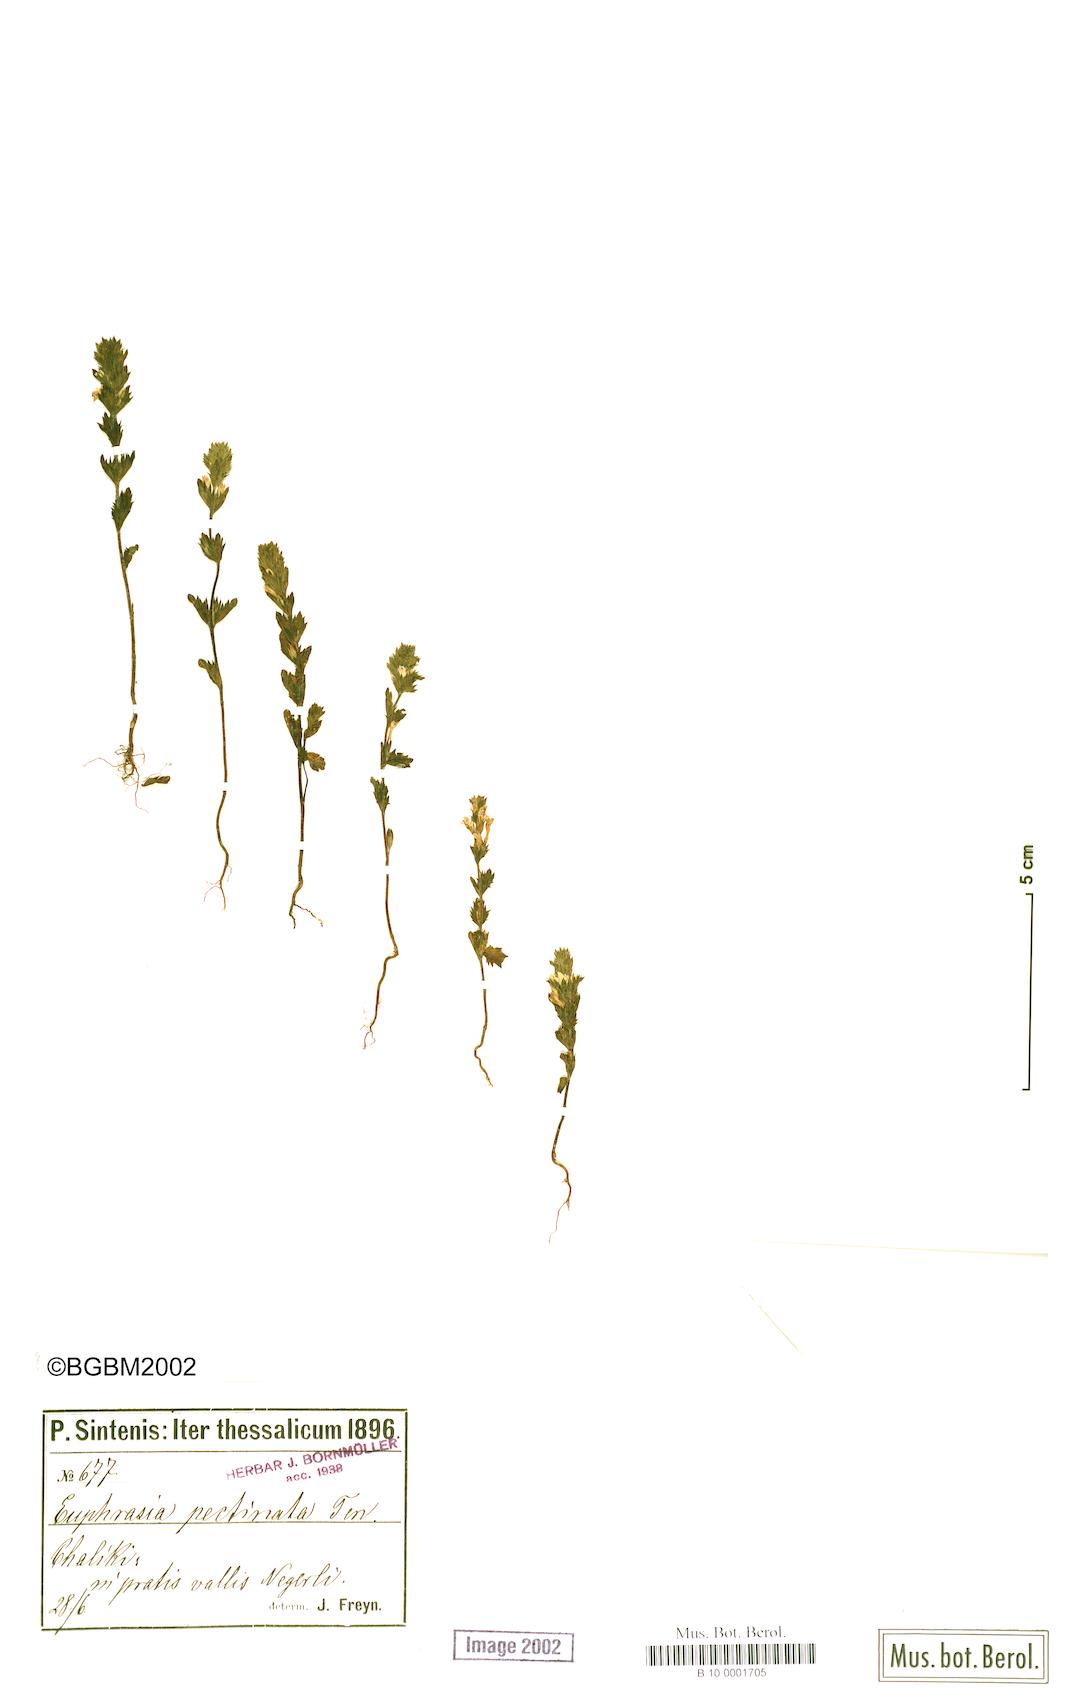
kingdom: Plantae
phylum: Tracheophyta
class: Magnoliopsida
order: Lamiales
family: Orobanchaceae
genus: Euphrasia
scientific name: Euphrasia pectinata
